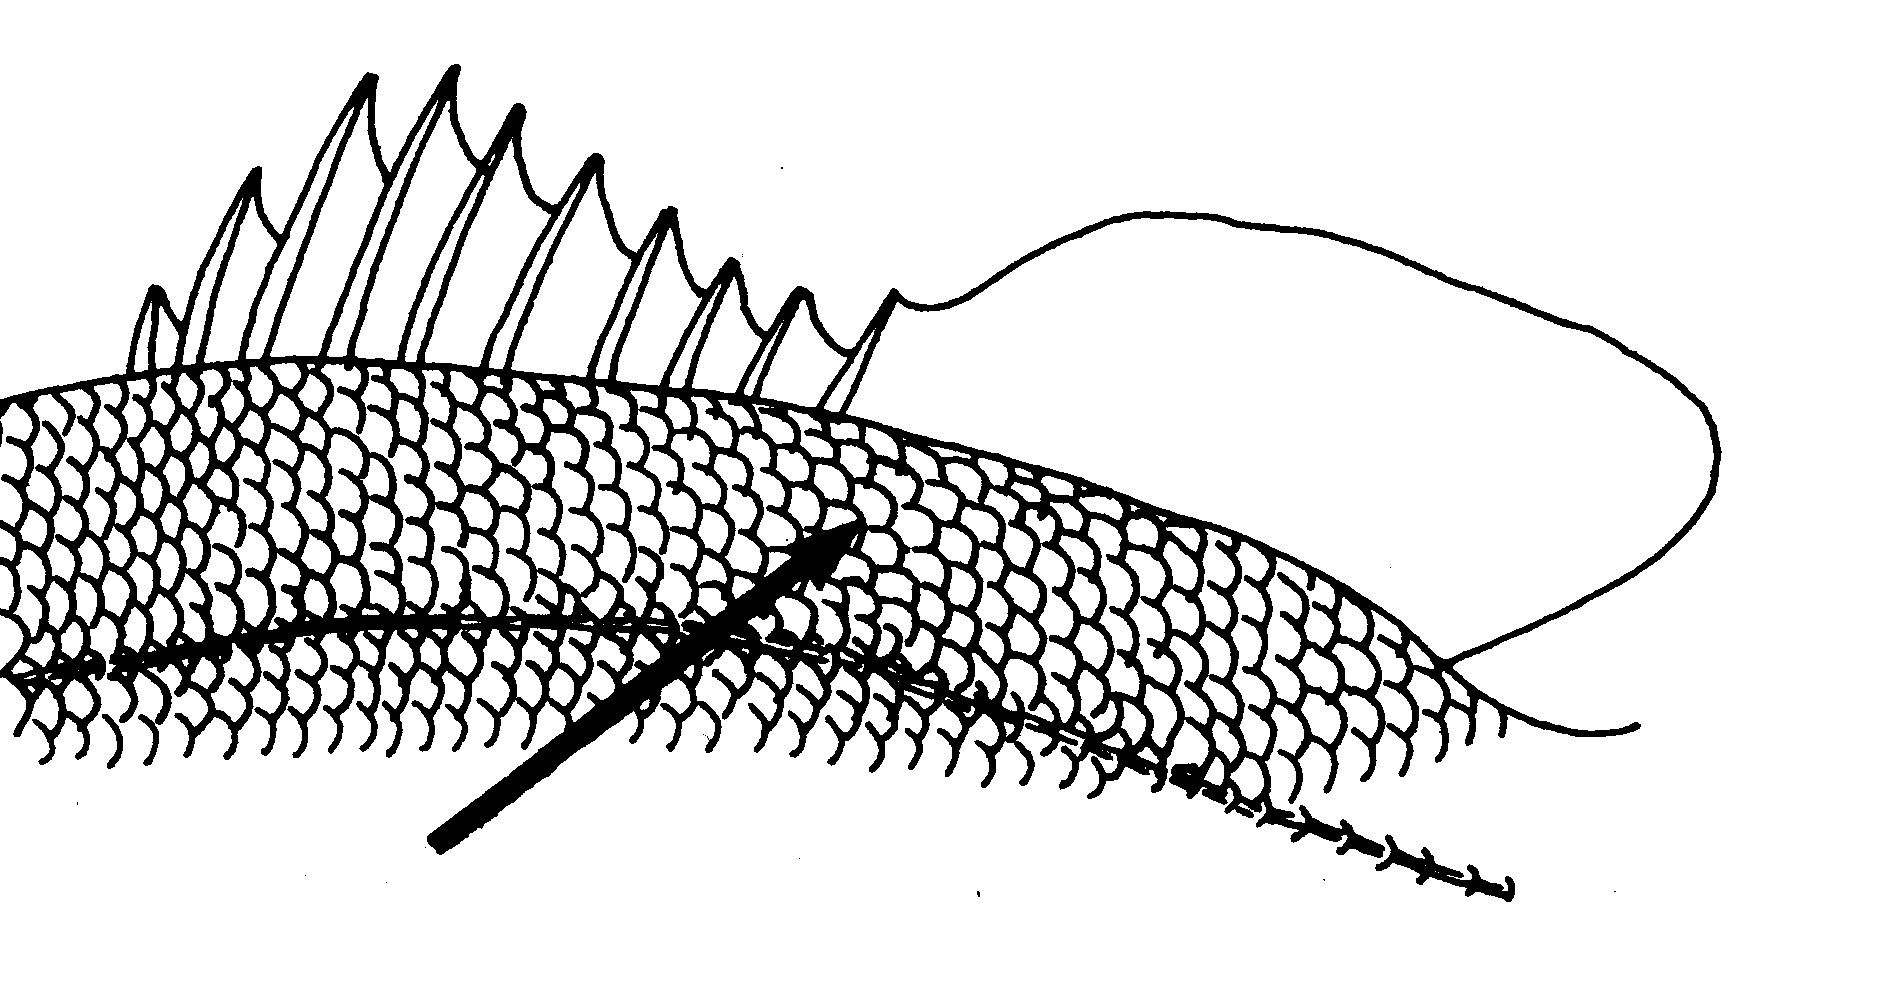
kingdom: Animalia
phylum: Chordata
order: Perciformes
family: Lutjanidae
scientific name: Lutjanidae
